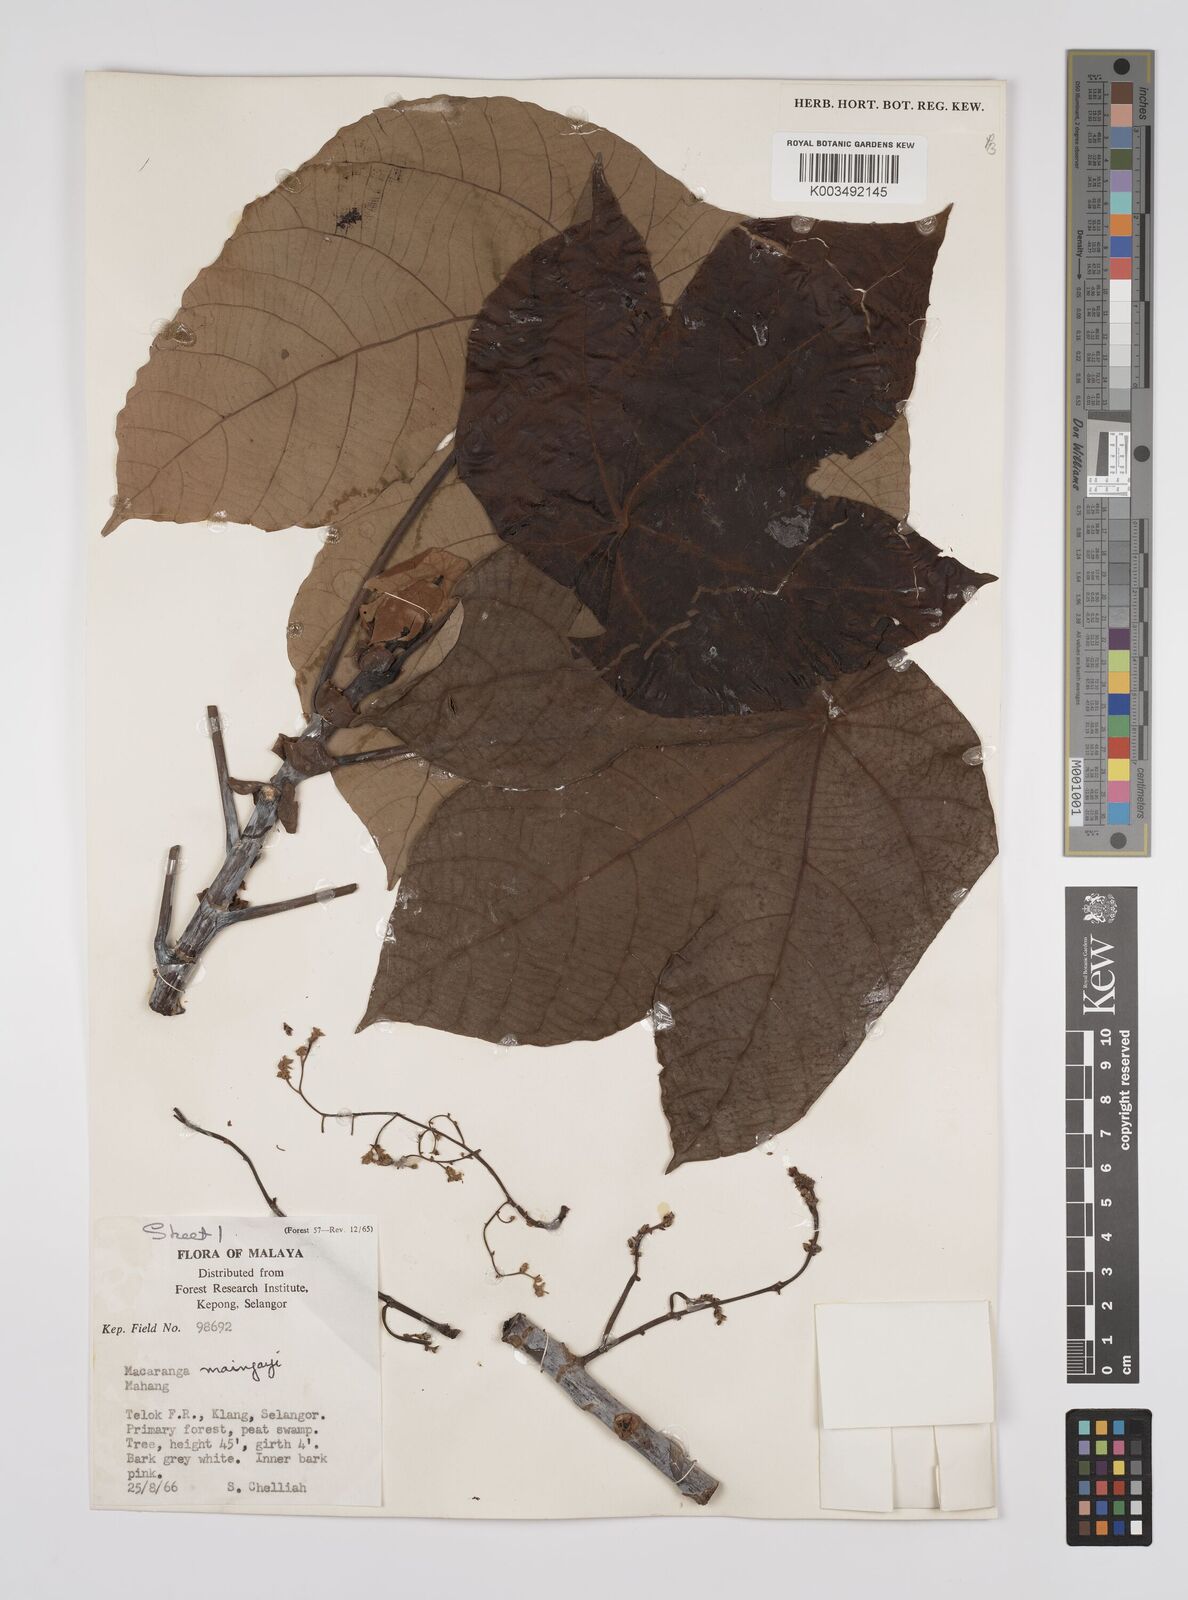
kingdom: Plantae
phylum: Tracheophyta
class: Magnoliopsida
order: Malpighiales
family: Euphorbiaceae
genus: Macaranga
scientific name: Macaranga pruinosa
